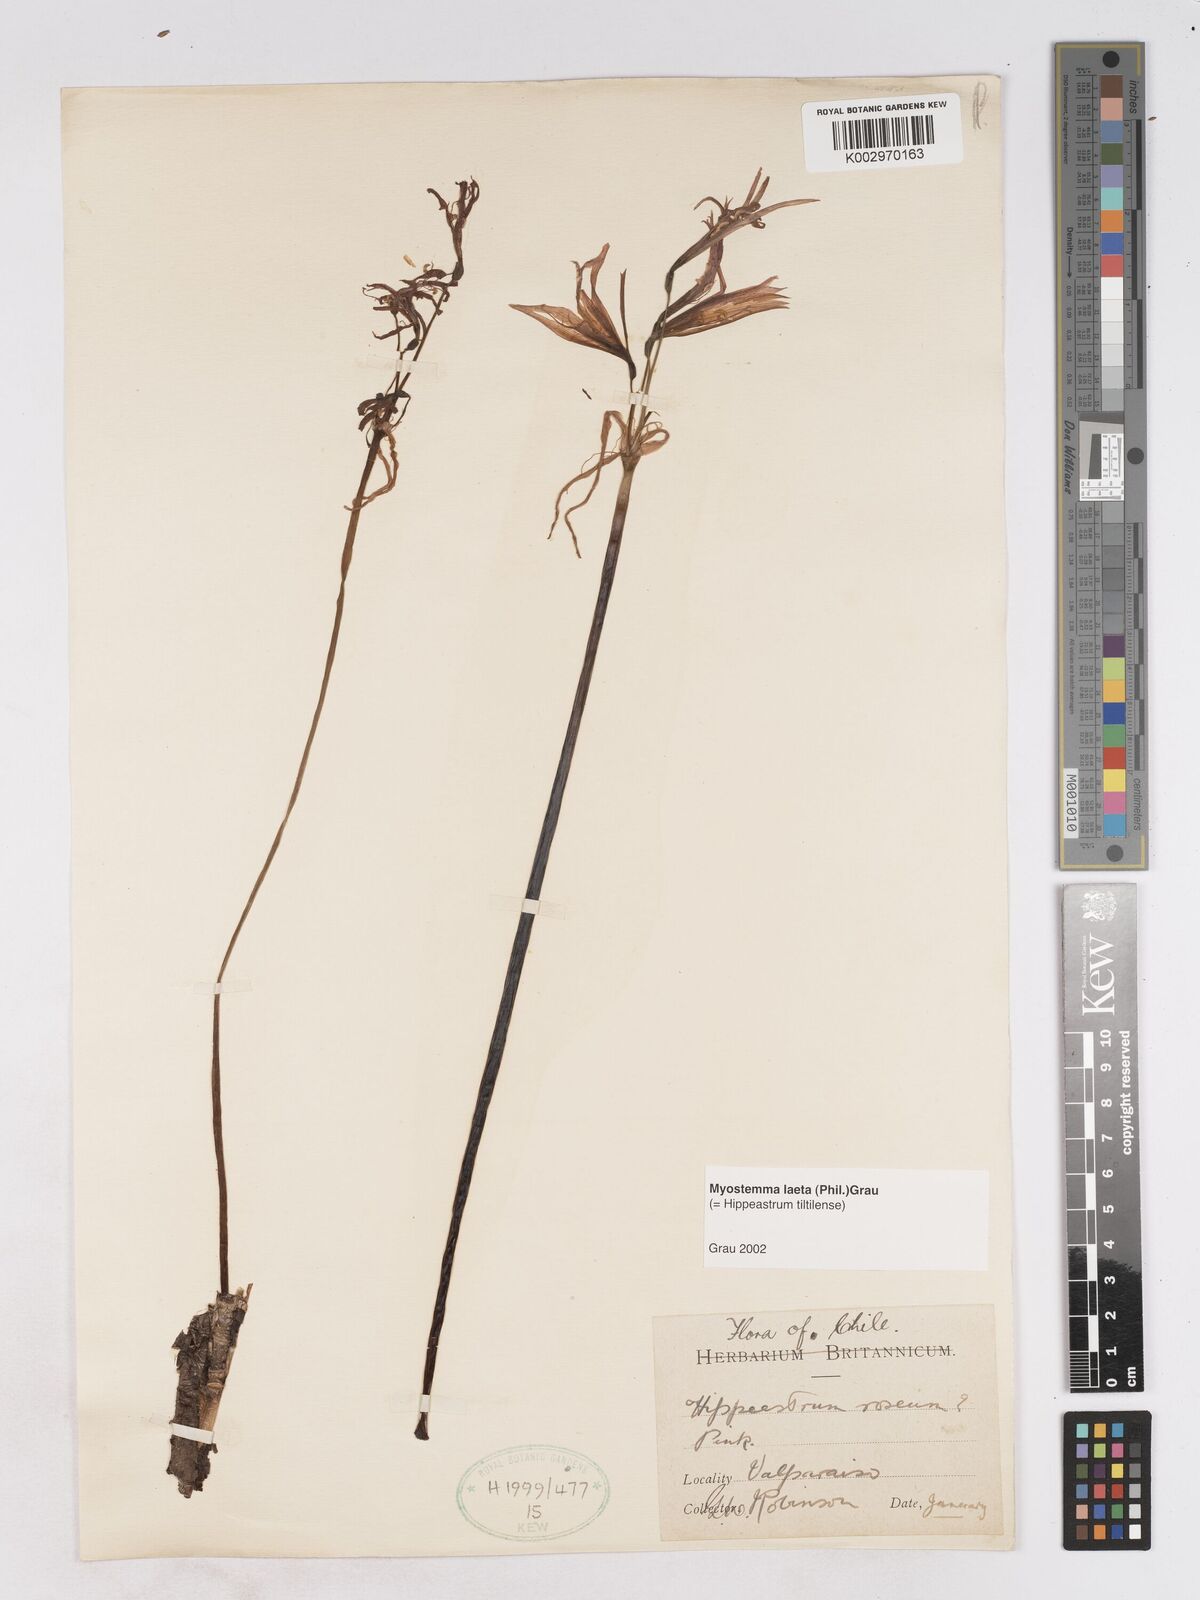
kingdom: Plantae
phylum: Tracheophyta
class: Liliopsida
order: Asparagales
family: Amaryllidaceae
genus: Zephyranthes
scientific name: Zephyranthes laeta
